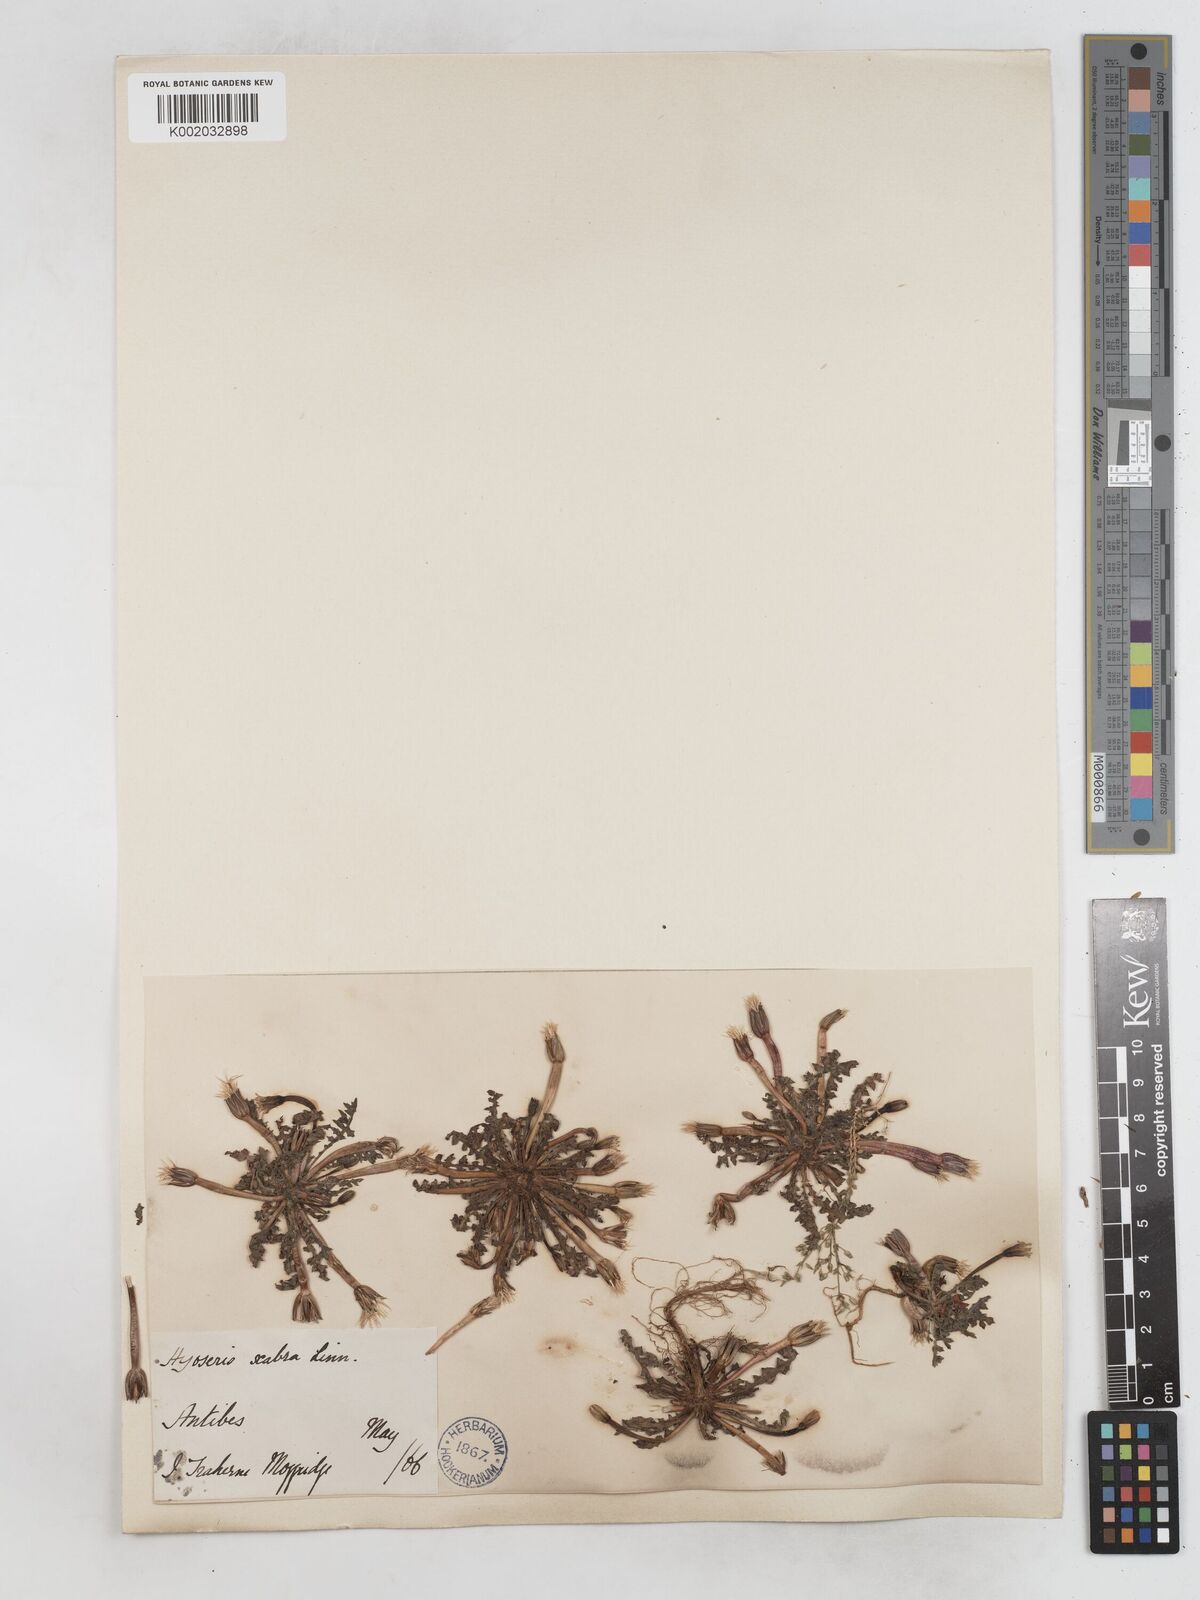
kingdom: Plantae
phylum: Tracheophyta
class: Magnoliopsida
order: Asterales
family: Asteraceae
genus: Hyoseris
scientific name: Hyoseris scabra
